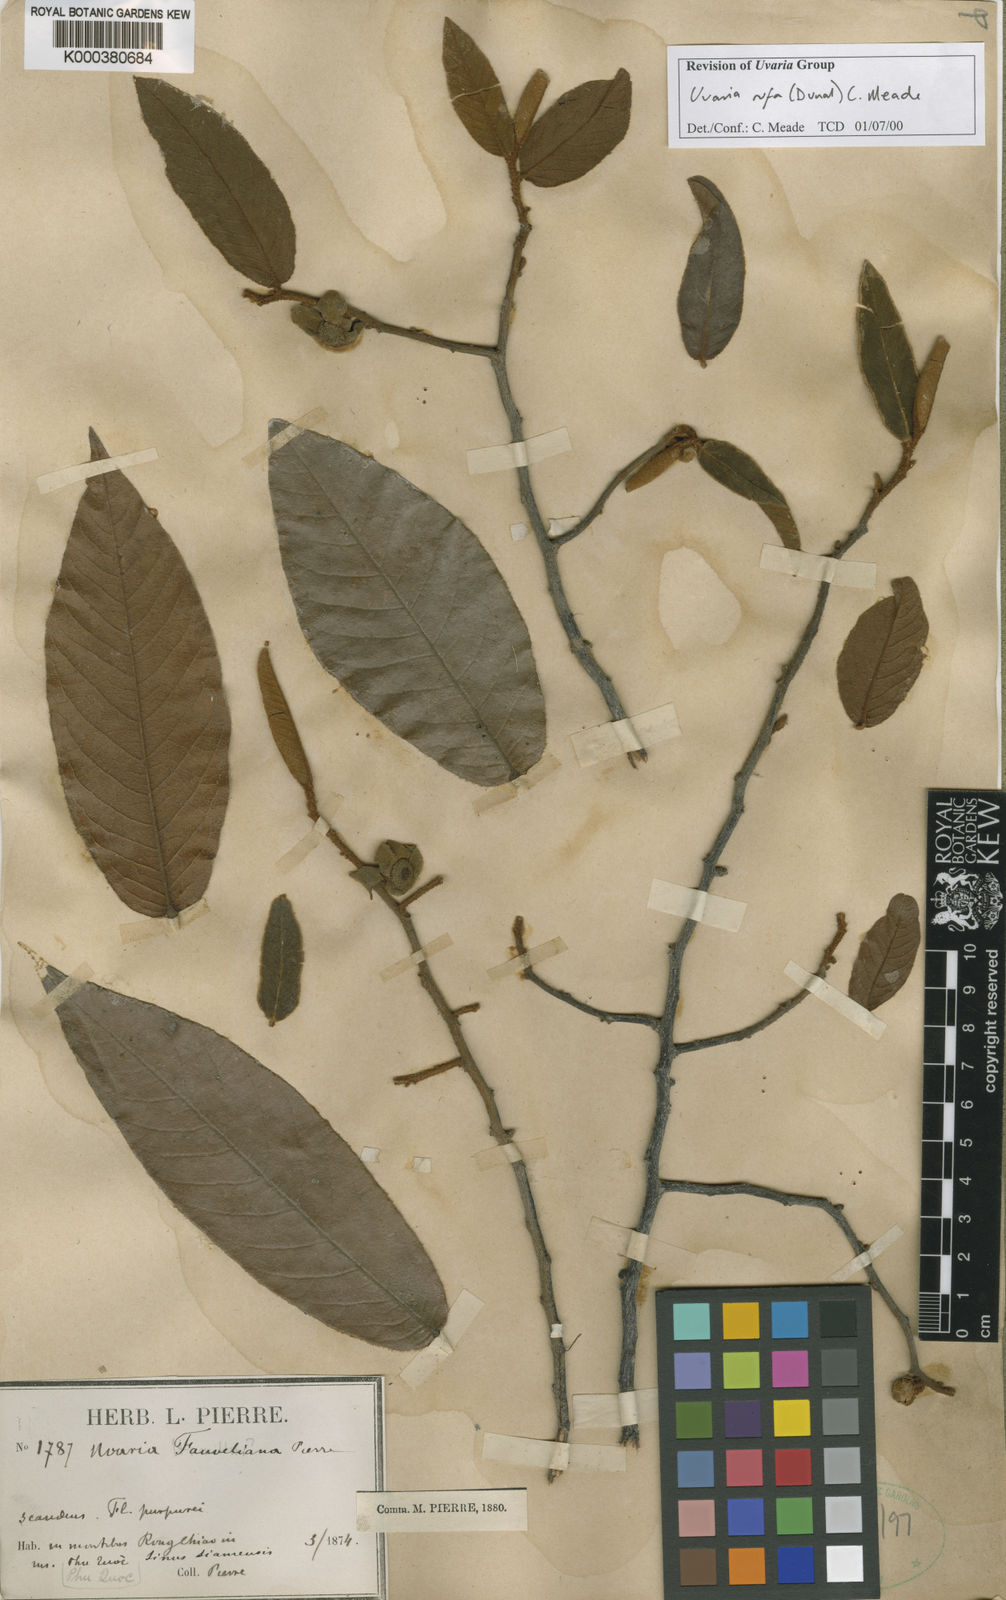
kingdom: Plantae
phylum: Tracheophyta
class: Magnoliopsida
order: Magnoliales
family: Annonaceae
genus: Uvaria
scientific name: Uvaria hamiltonii
